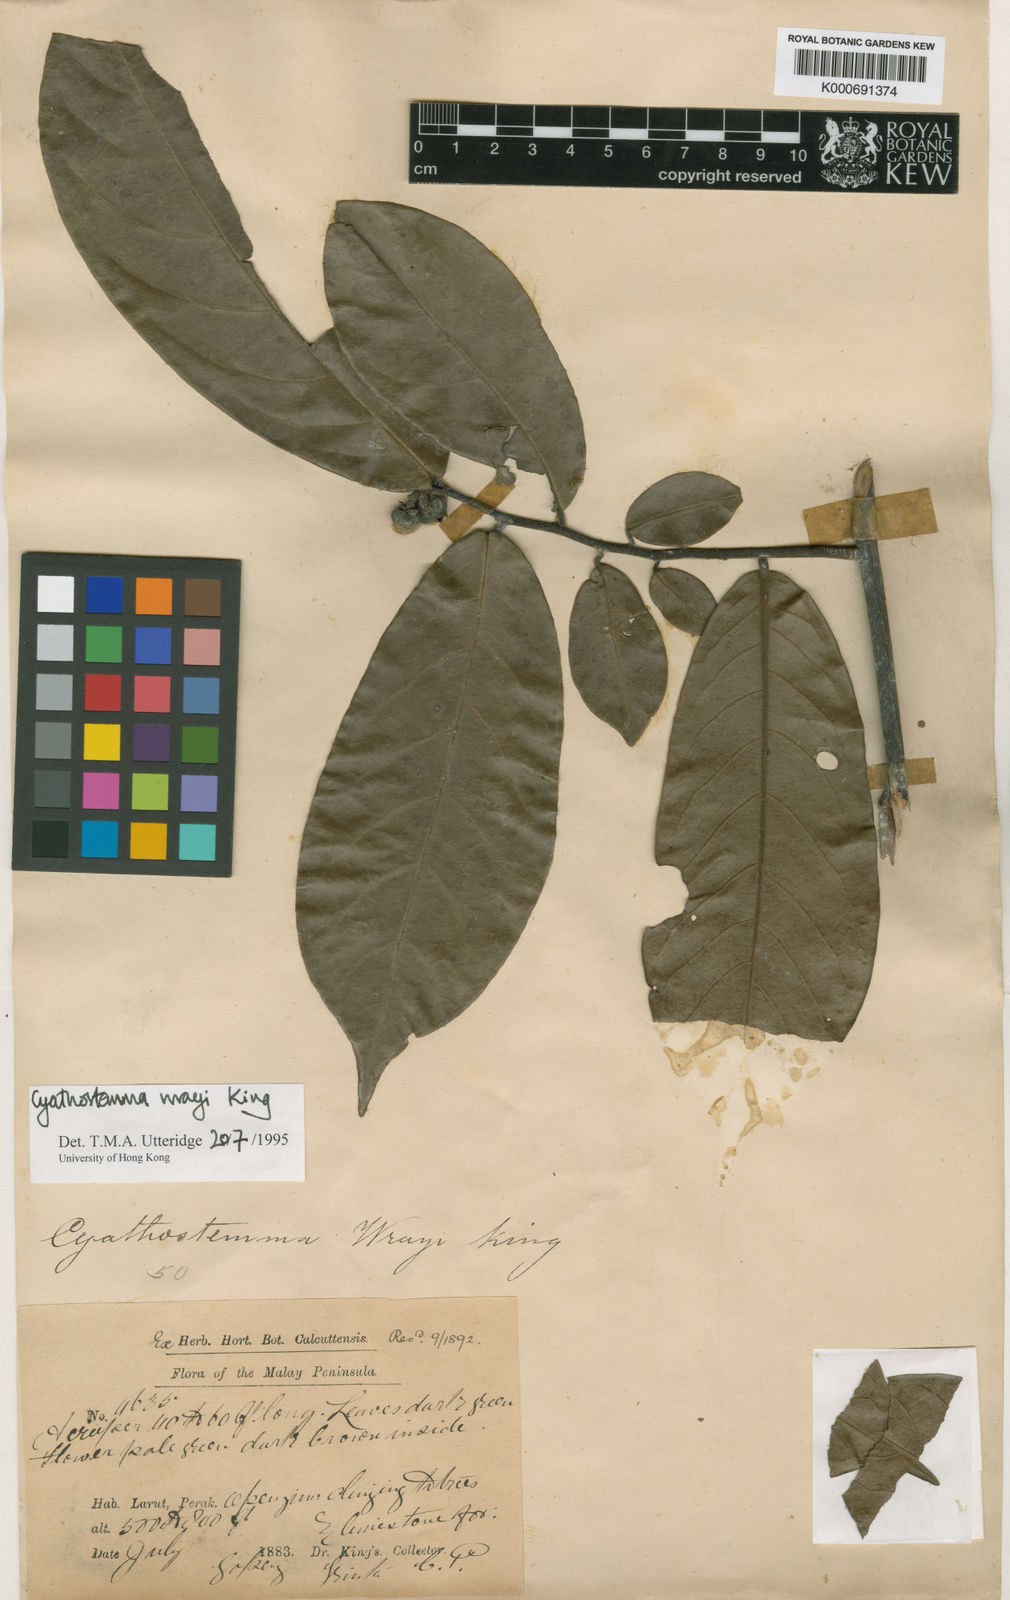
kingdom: Plantae
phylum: Tracheophyta
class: Magnoliopsida
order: Magnoliales
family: Annonaceae
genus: Uvaria
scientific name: Uvaria wrayi
